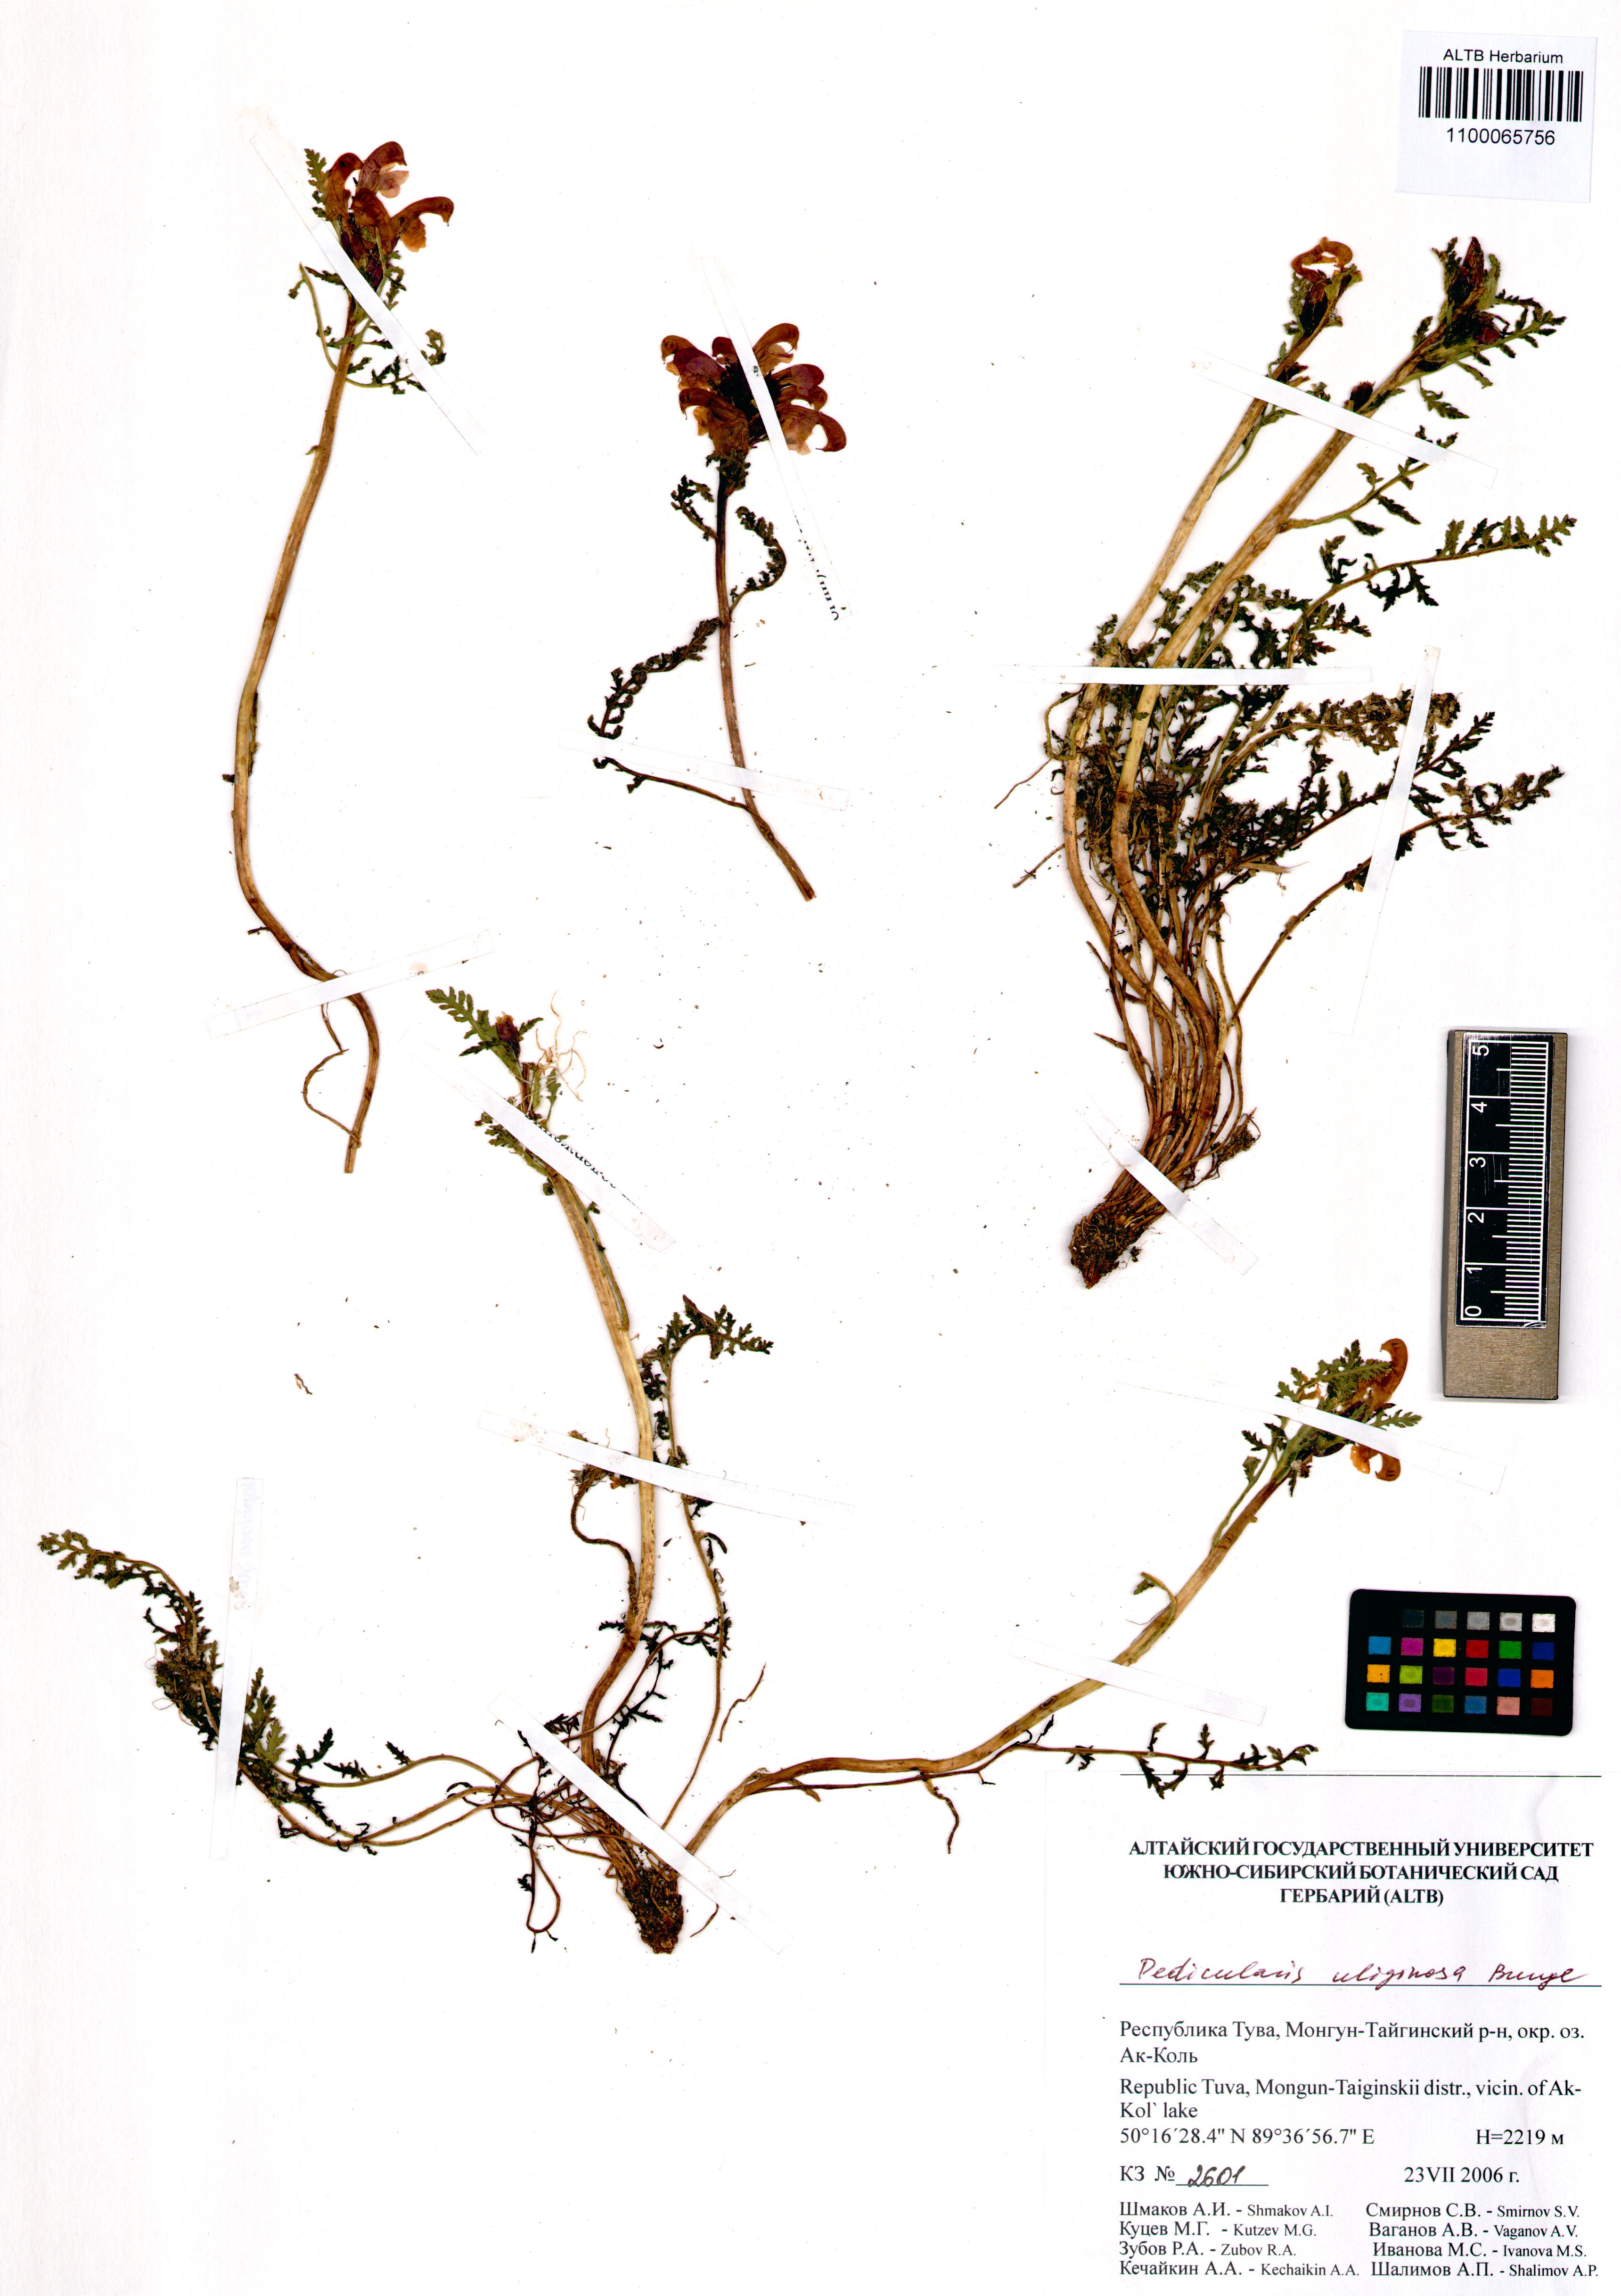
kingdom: Plantae
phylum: Tracheophyta
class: Magnoliopsida
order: Lamiales
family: Orobanchaceae
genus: Pedicularis
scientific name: Pedicularis uliginosa
